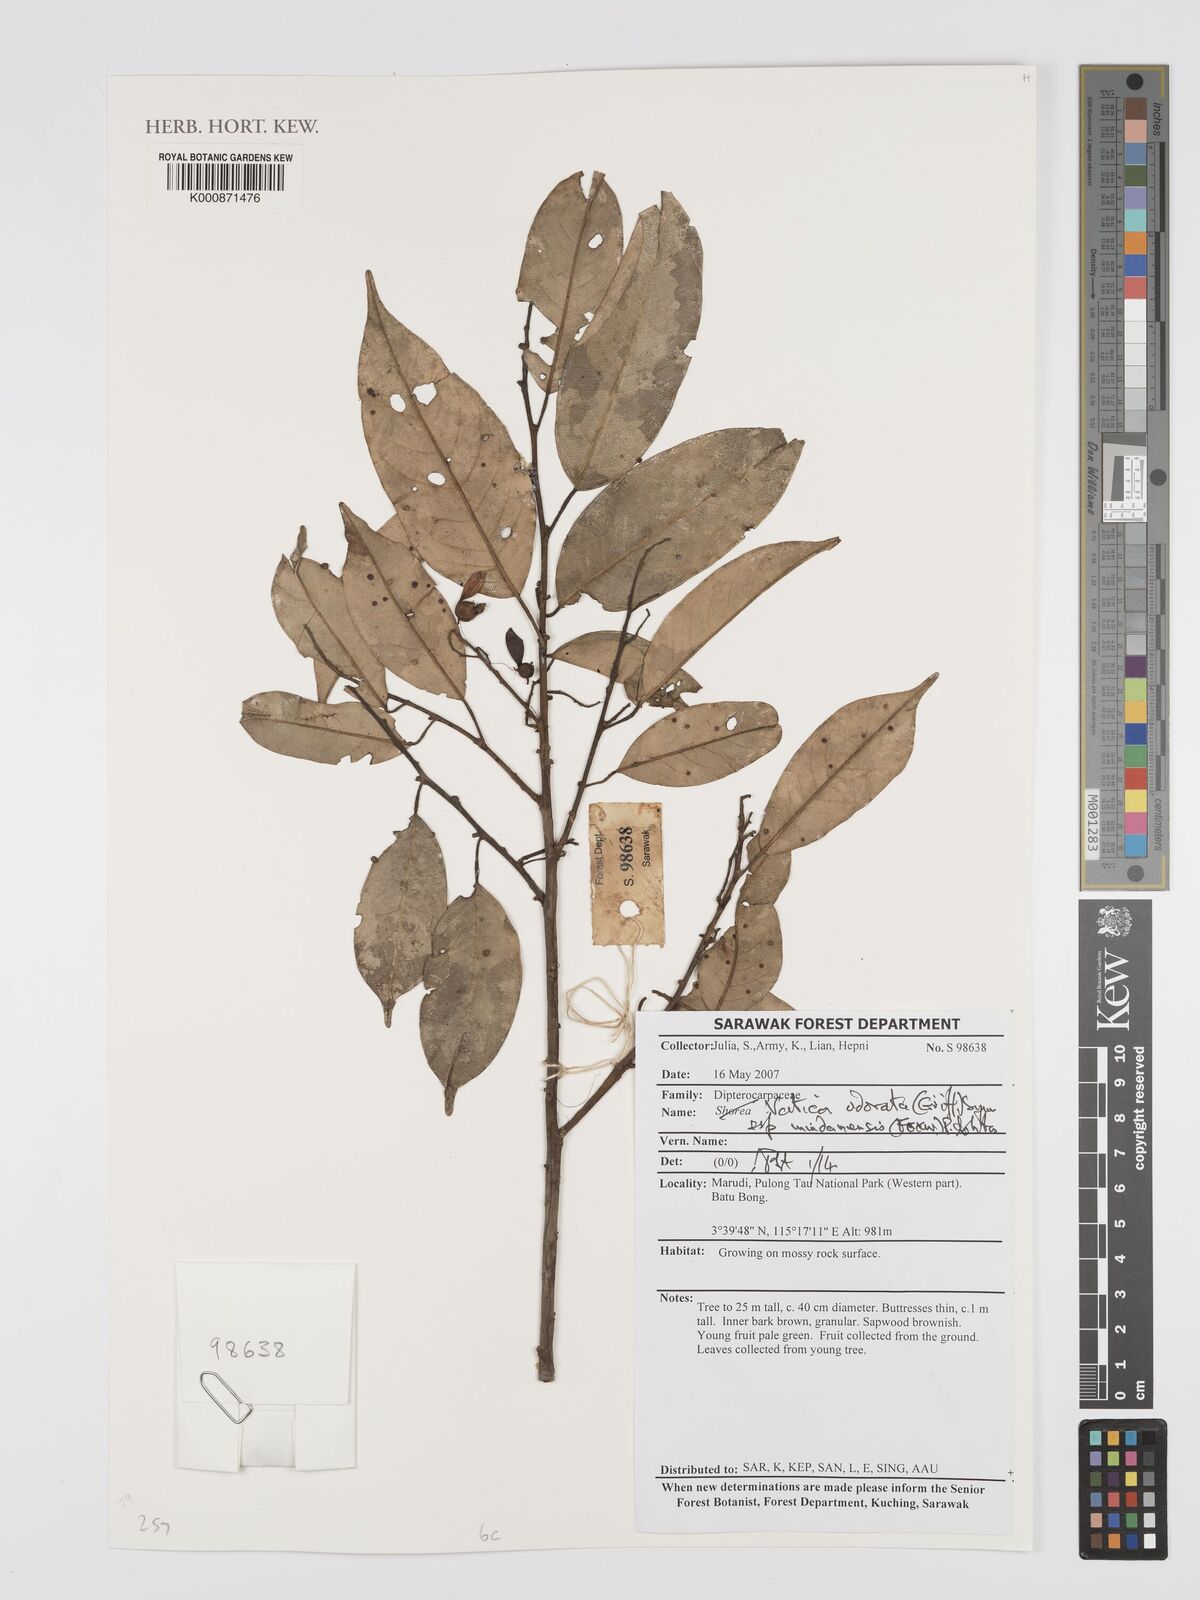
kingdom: Plantae
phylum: Tracheophyta
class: Magnoliopsida
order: Malvales
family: Dipterocarpaceae
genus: Vatica
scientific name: Vatica odorata
